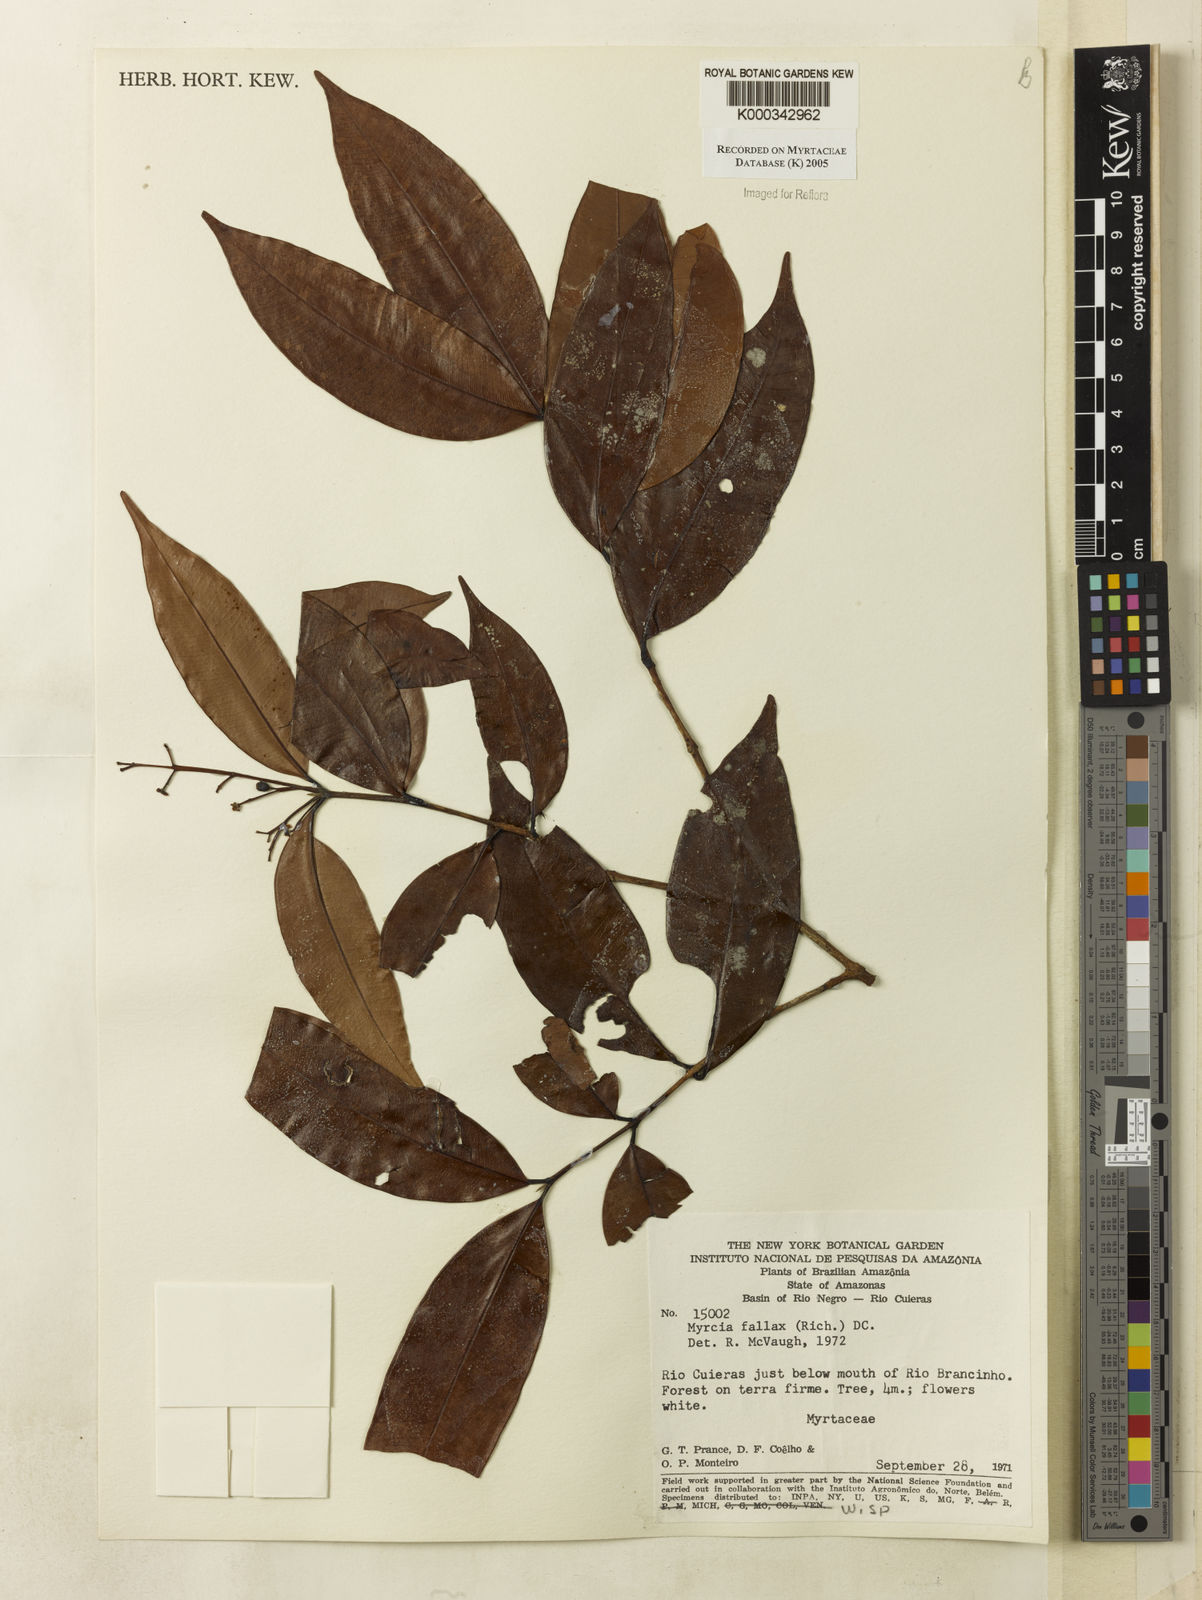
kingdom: Plantae
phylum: Tracheophyta
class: Magnoliopsida
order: Myrtales
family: Myrtaceae
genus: Myrcia
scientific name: Myrcia splendens
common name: Surinam cherry
